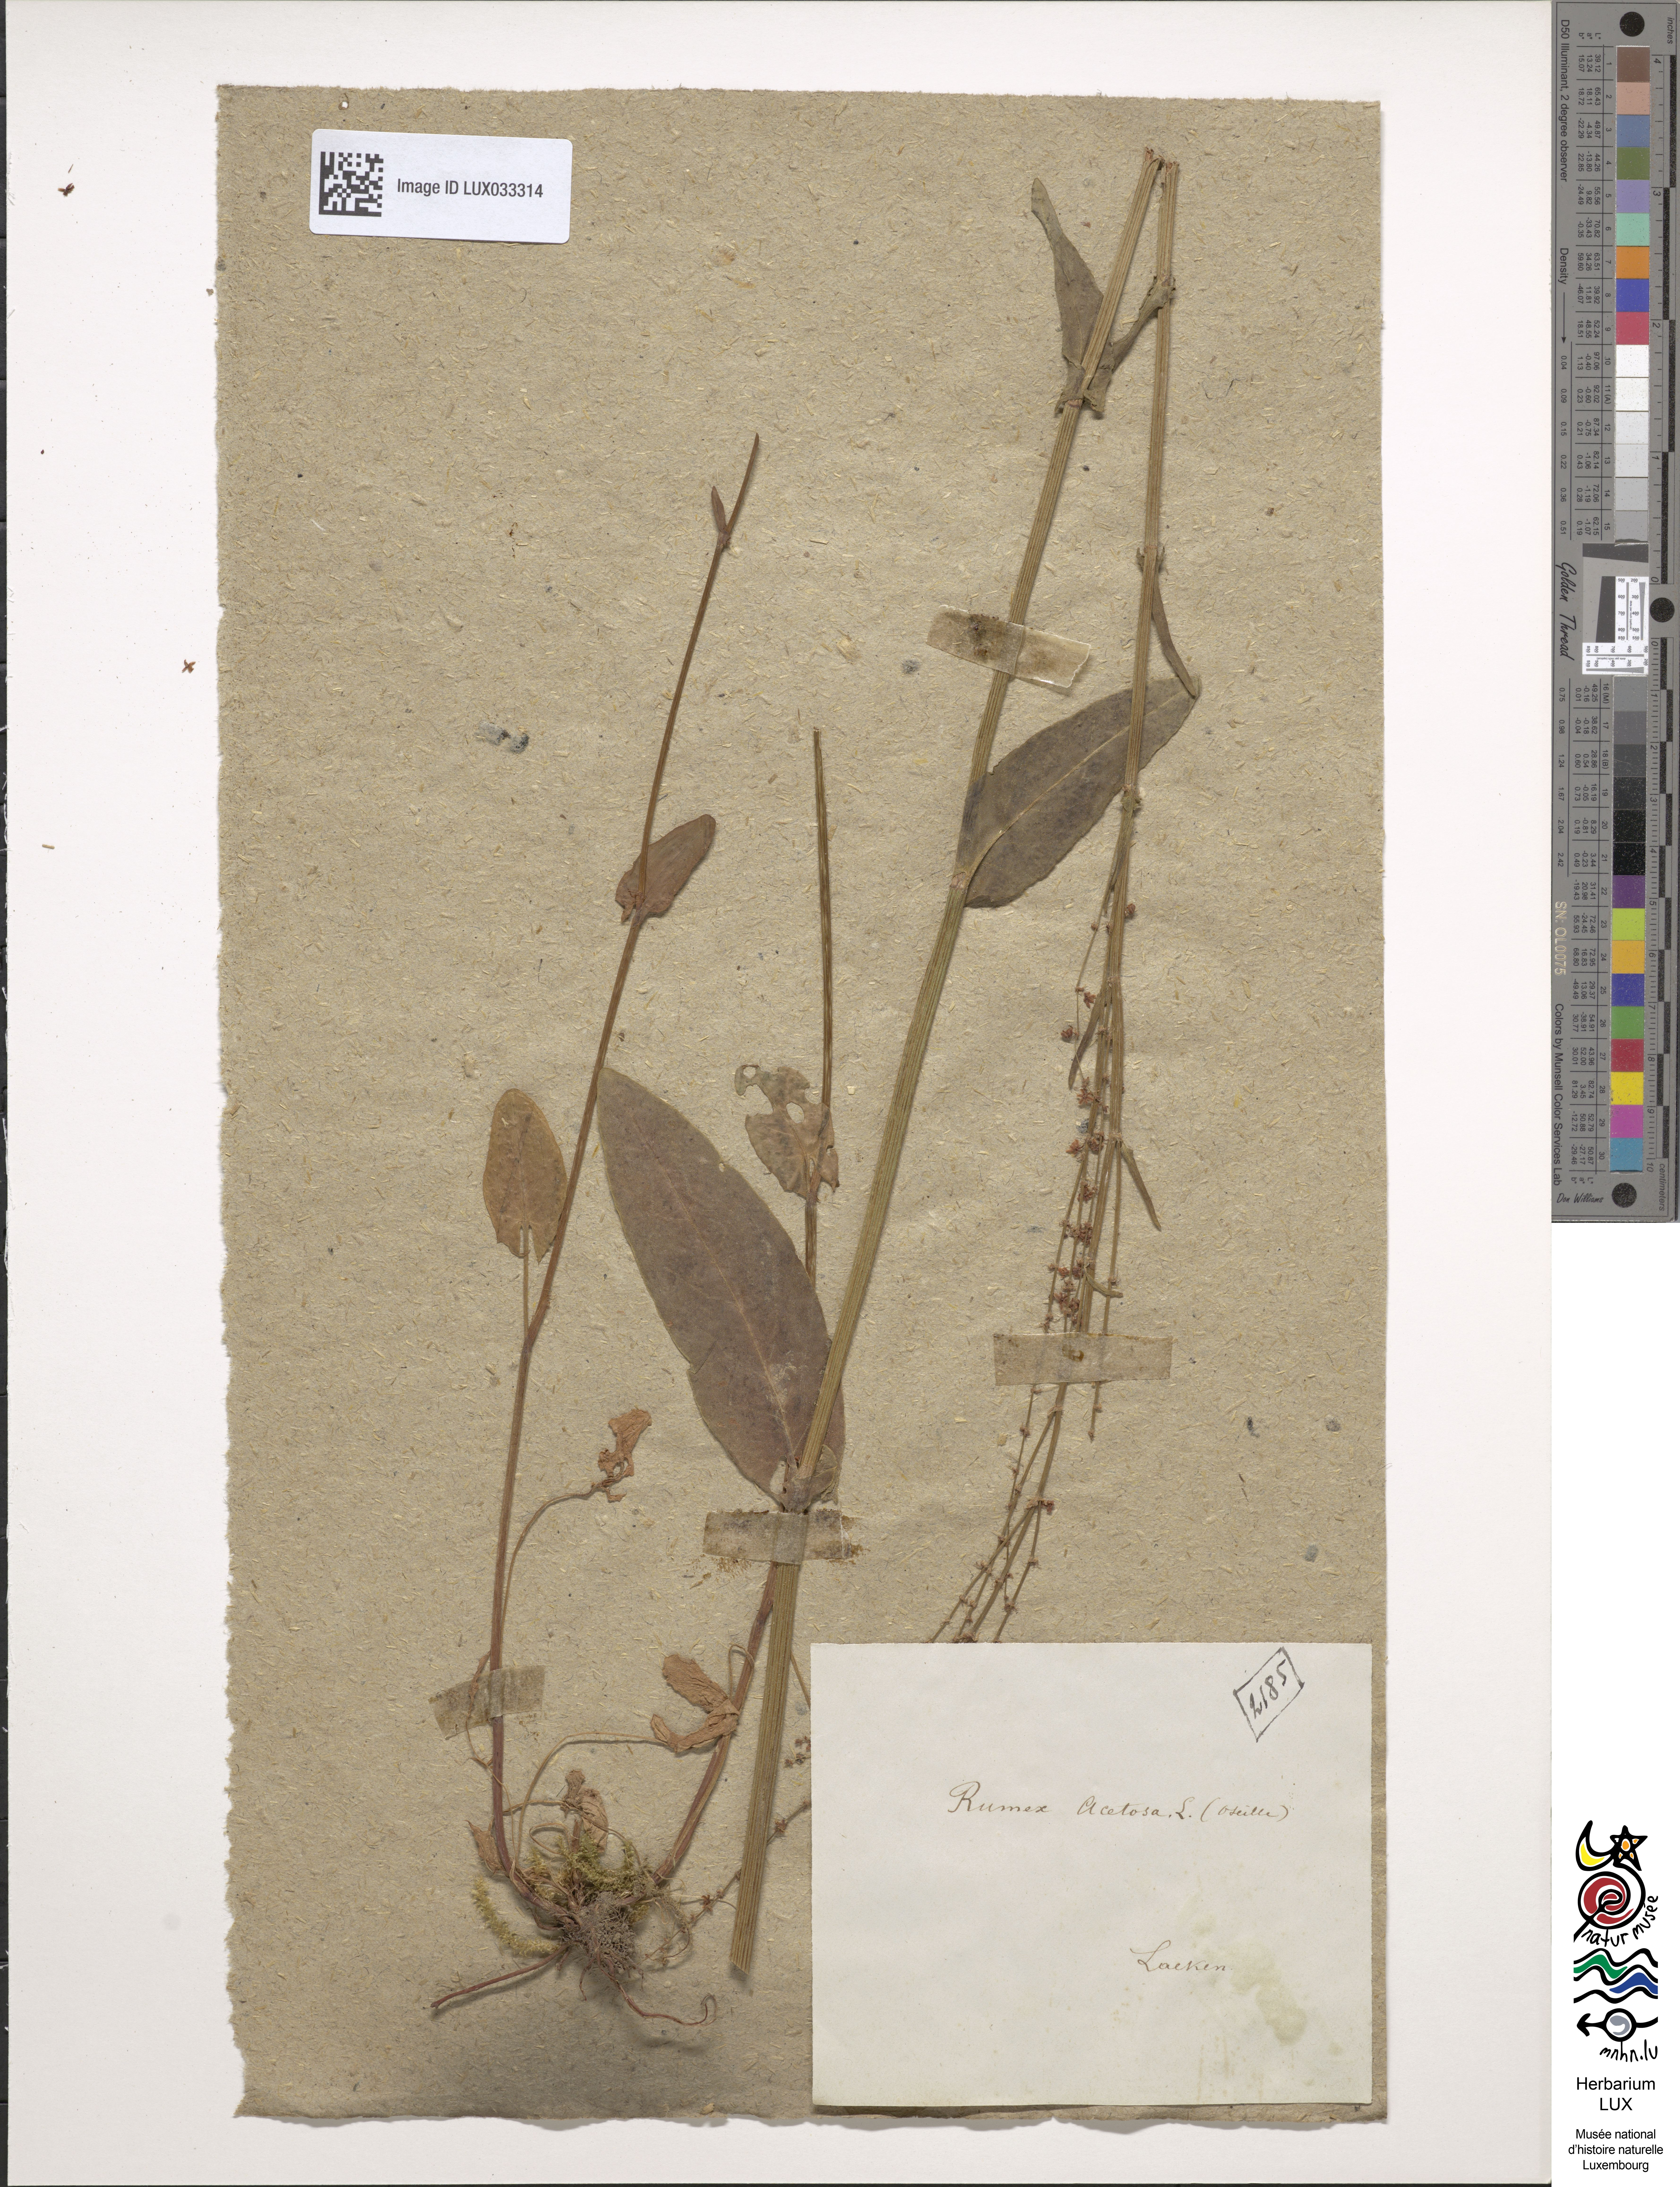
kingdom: Plantae
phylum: Tracheophyta
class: Magnoliopsida
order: Caryophyllales
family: Polygonaceae
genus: Rumex
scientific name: Rumex acetosa
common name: Garden sorrel
